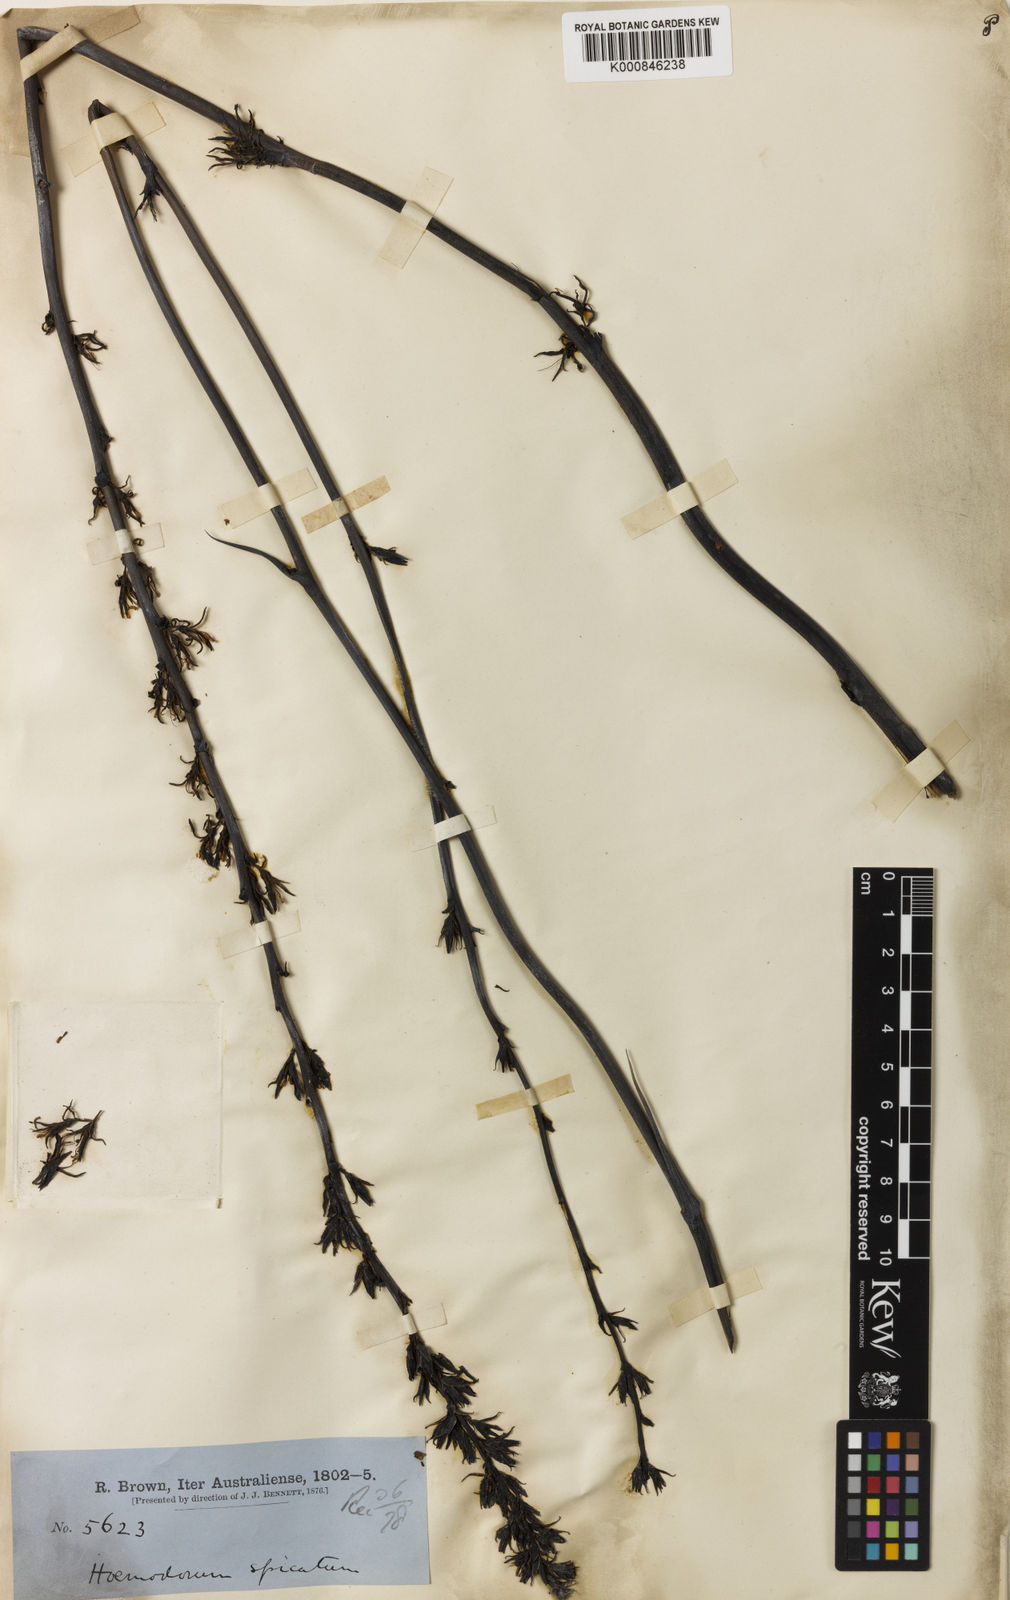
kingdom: Plantae
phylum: Tracheophyta
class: Liliopsida
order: Commelinales
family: Haemodoraceae
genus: Haemodorum
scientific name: Haemodorum spicatum
